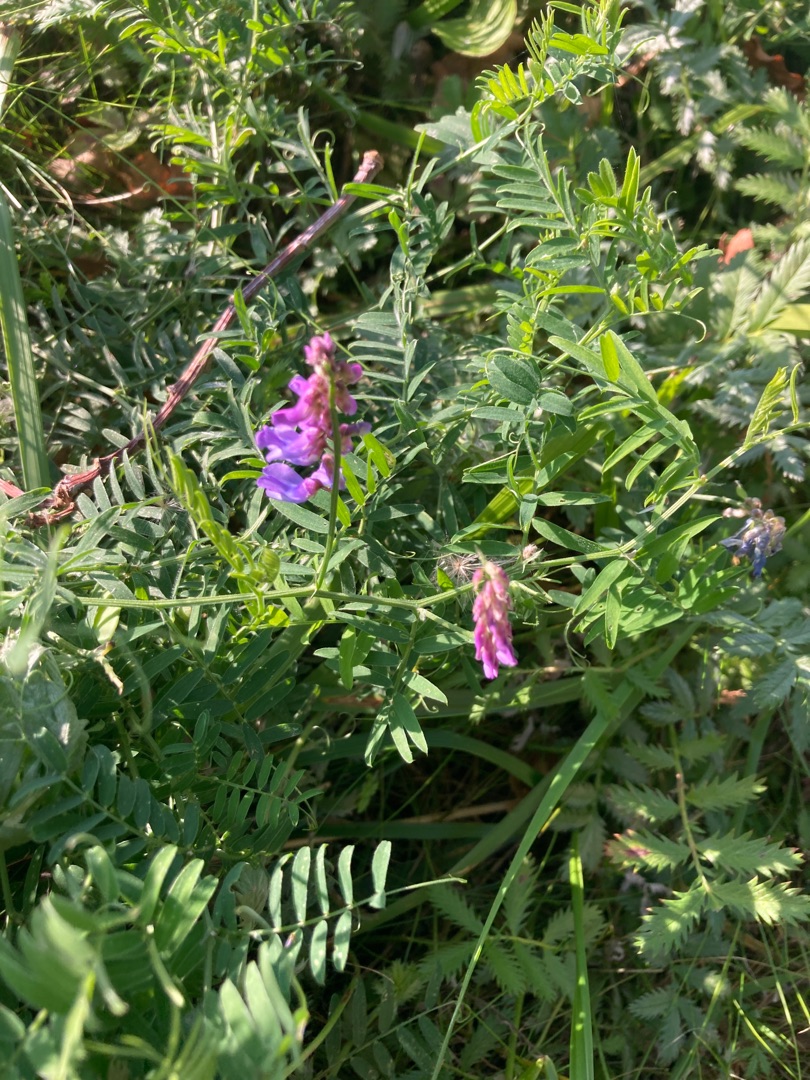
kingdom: Plantae
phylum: Tracheophyta
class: Magnoliopsida
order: Fabales
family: Fabaceae
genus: Vicia
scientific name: Vicia cracca
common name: Muse-vikke
